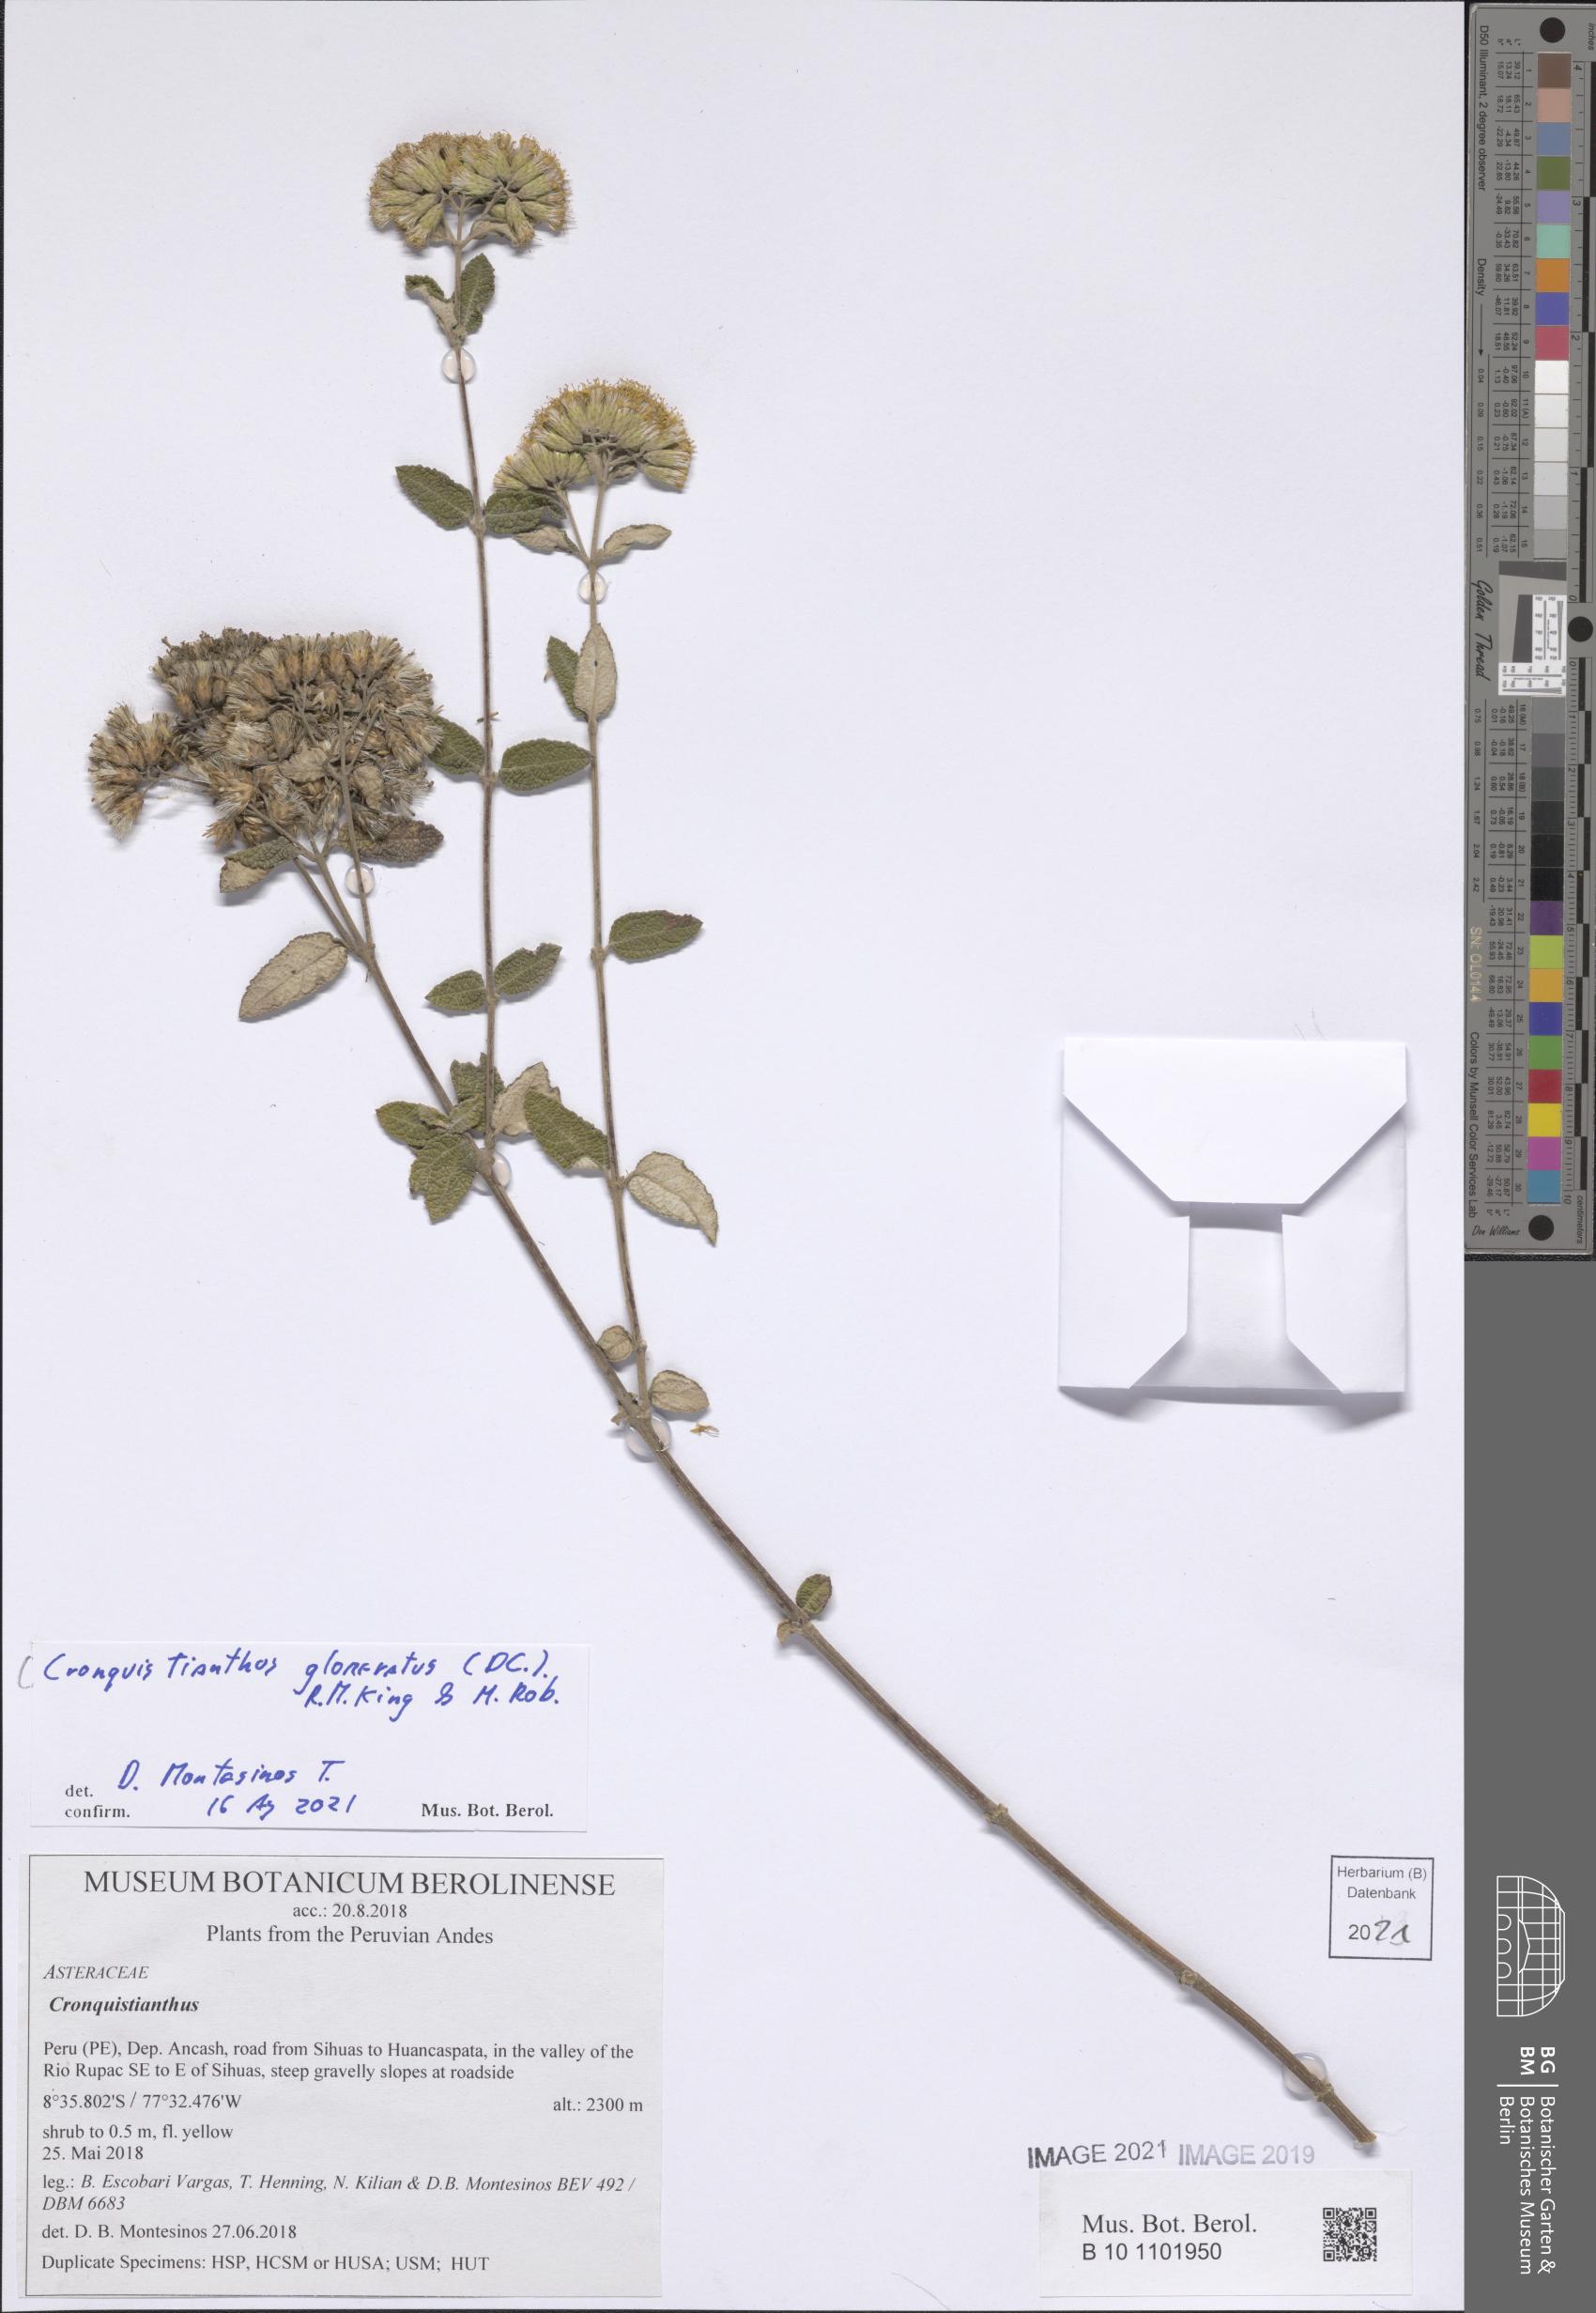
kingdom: Plantae
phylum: Tracheophyta
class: Magnoliopsida
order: Asterales
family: Asteraceae
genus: Cronquistianthus
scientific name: Cronquistianthus glomeratus
